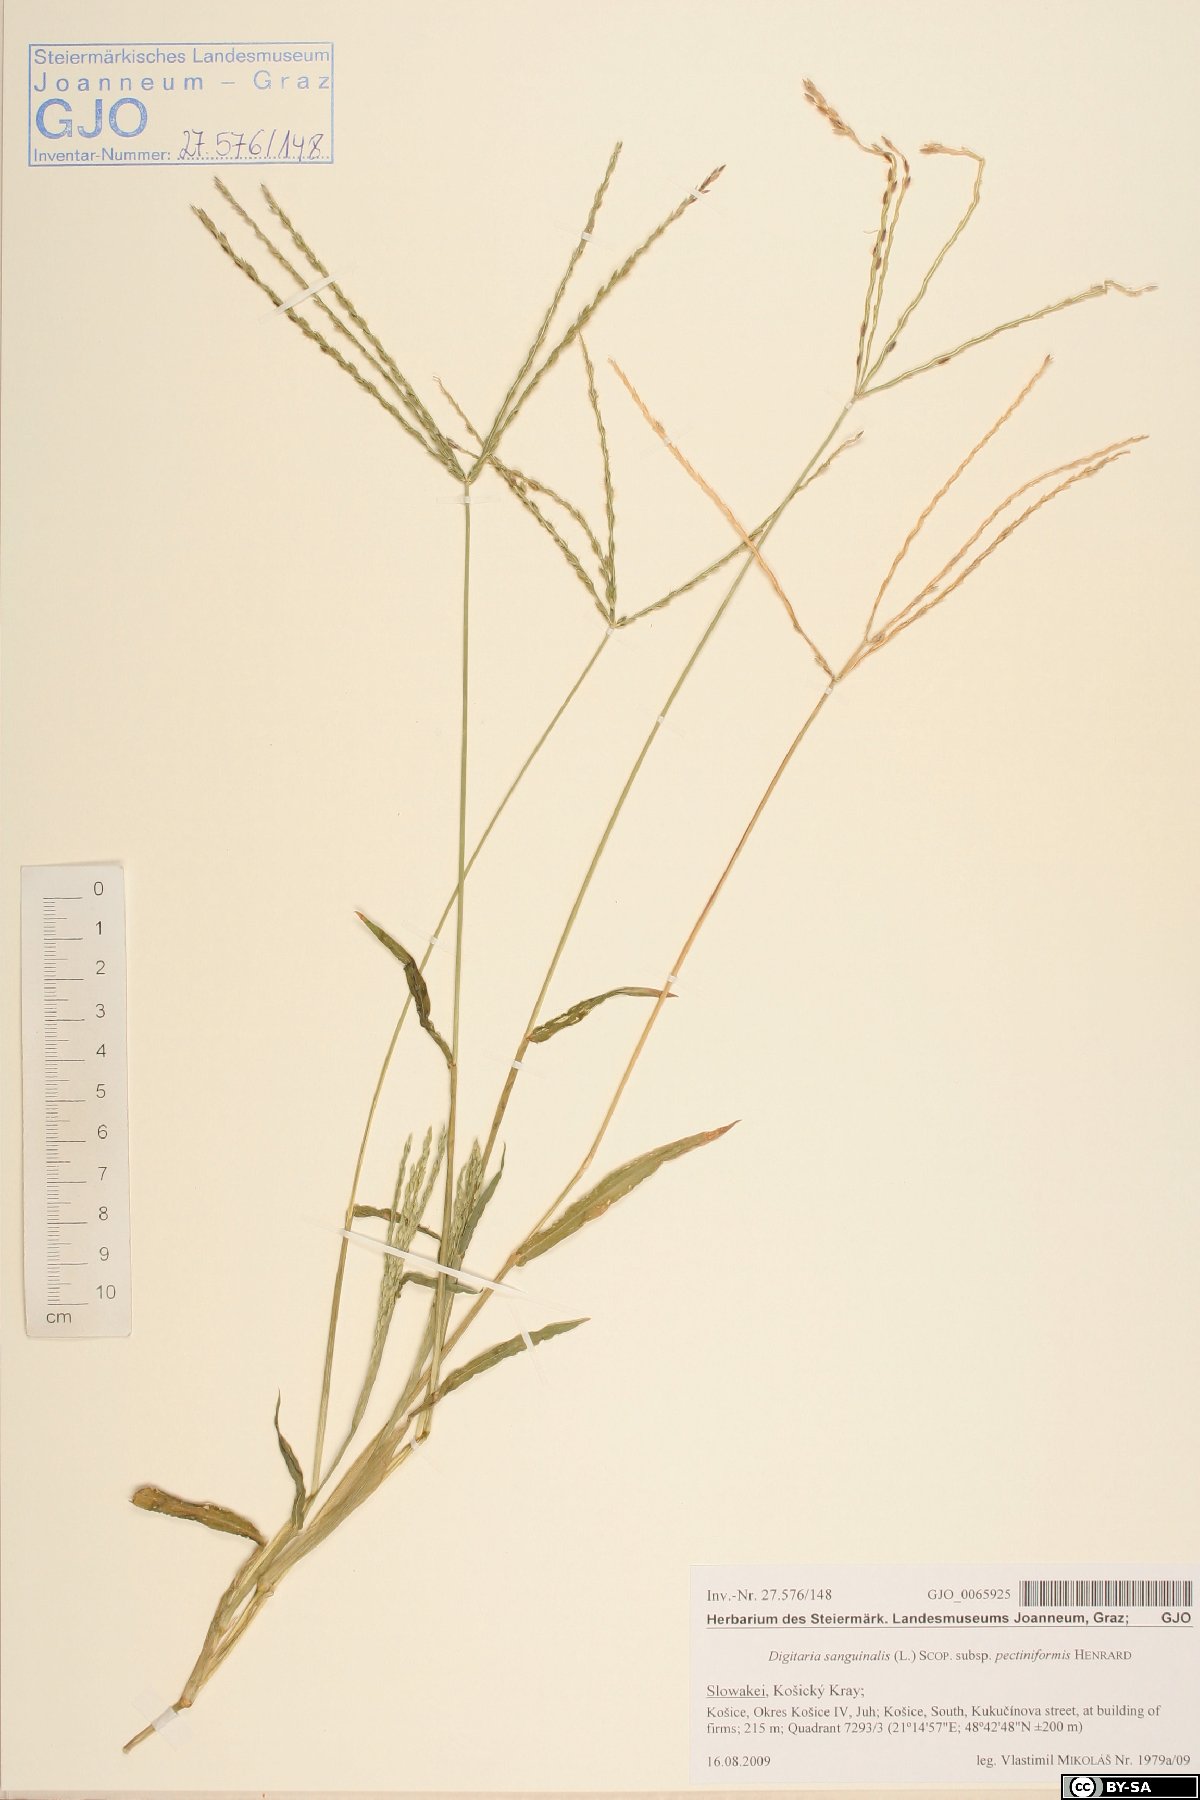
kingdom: Plantae
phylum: Tracheophyta
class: Liliopsida
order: Poales
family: Poaceae
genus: Digitaria
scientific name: Digitaria sanguinalis
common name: Hairy crabgrass
